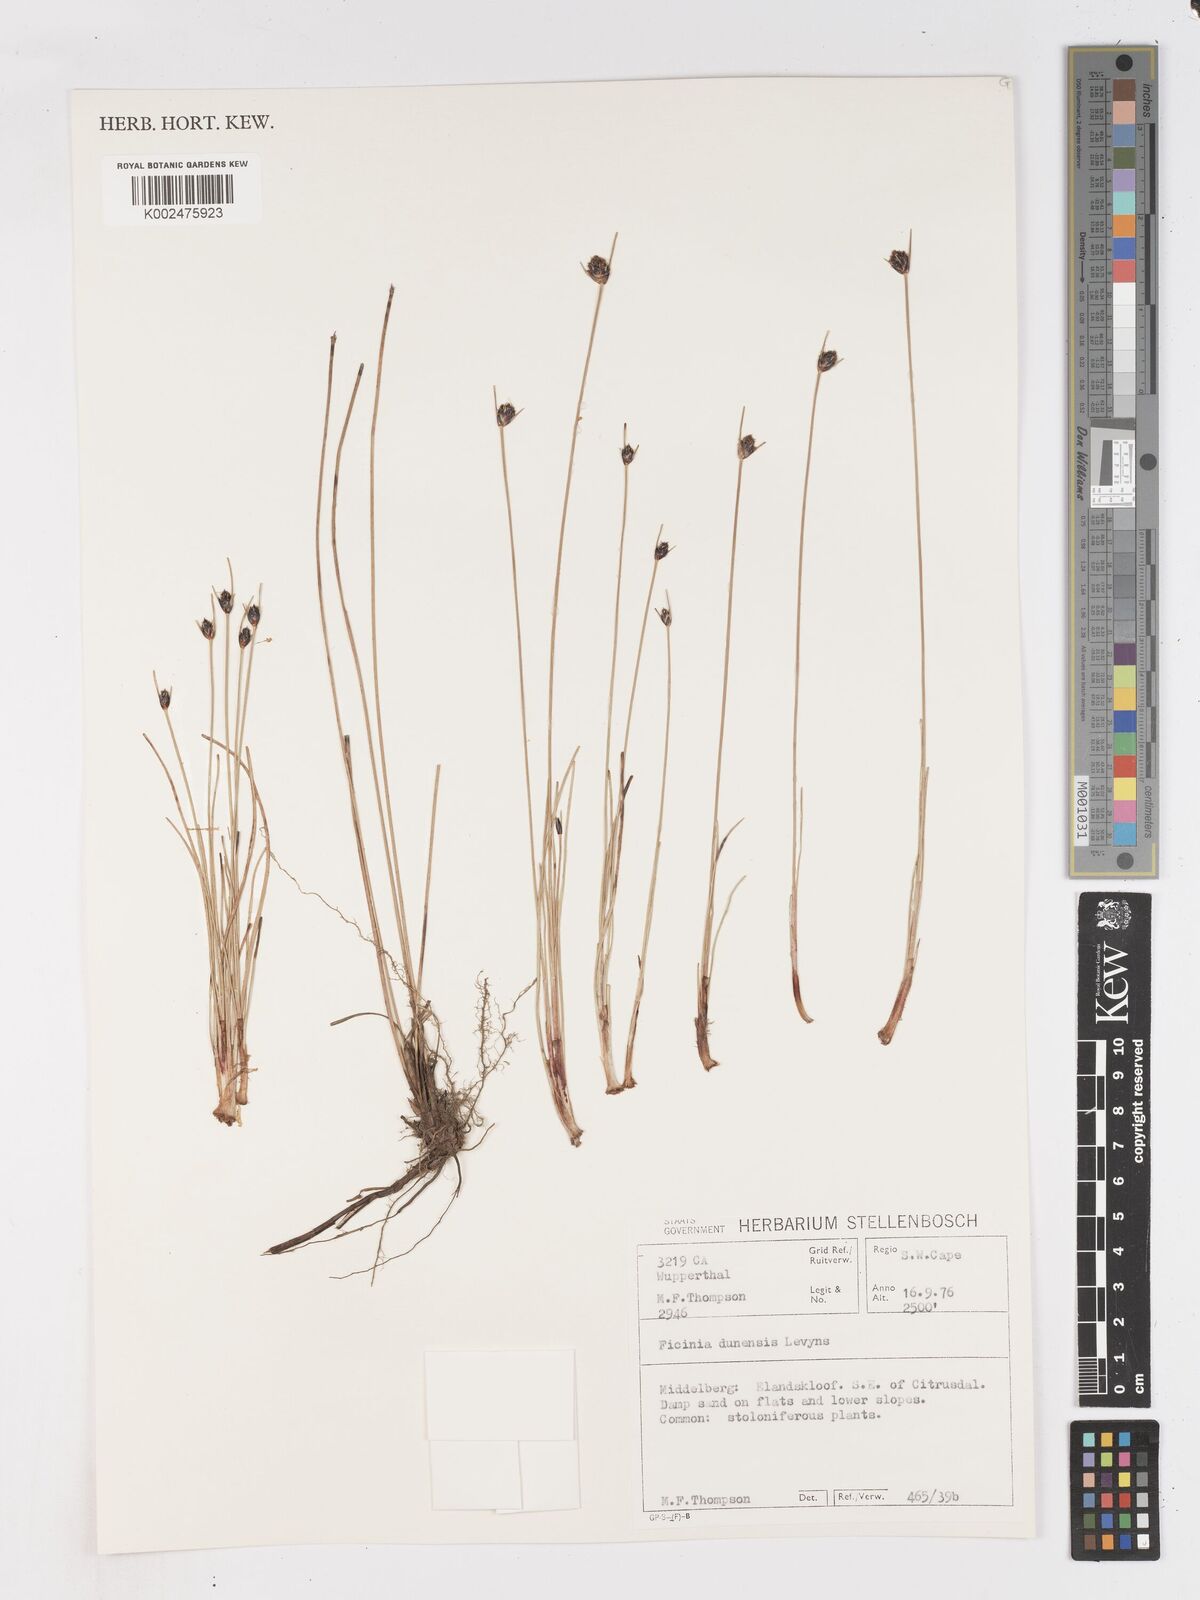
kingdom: Plantae
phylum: Tracheophyta
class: Liliopsida
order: Poales
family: Cyperaceae
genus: Ficinia
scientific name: Ficinia dunensis
